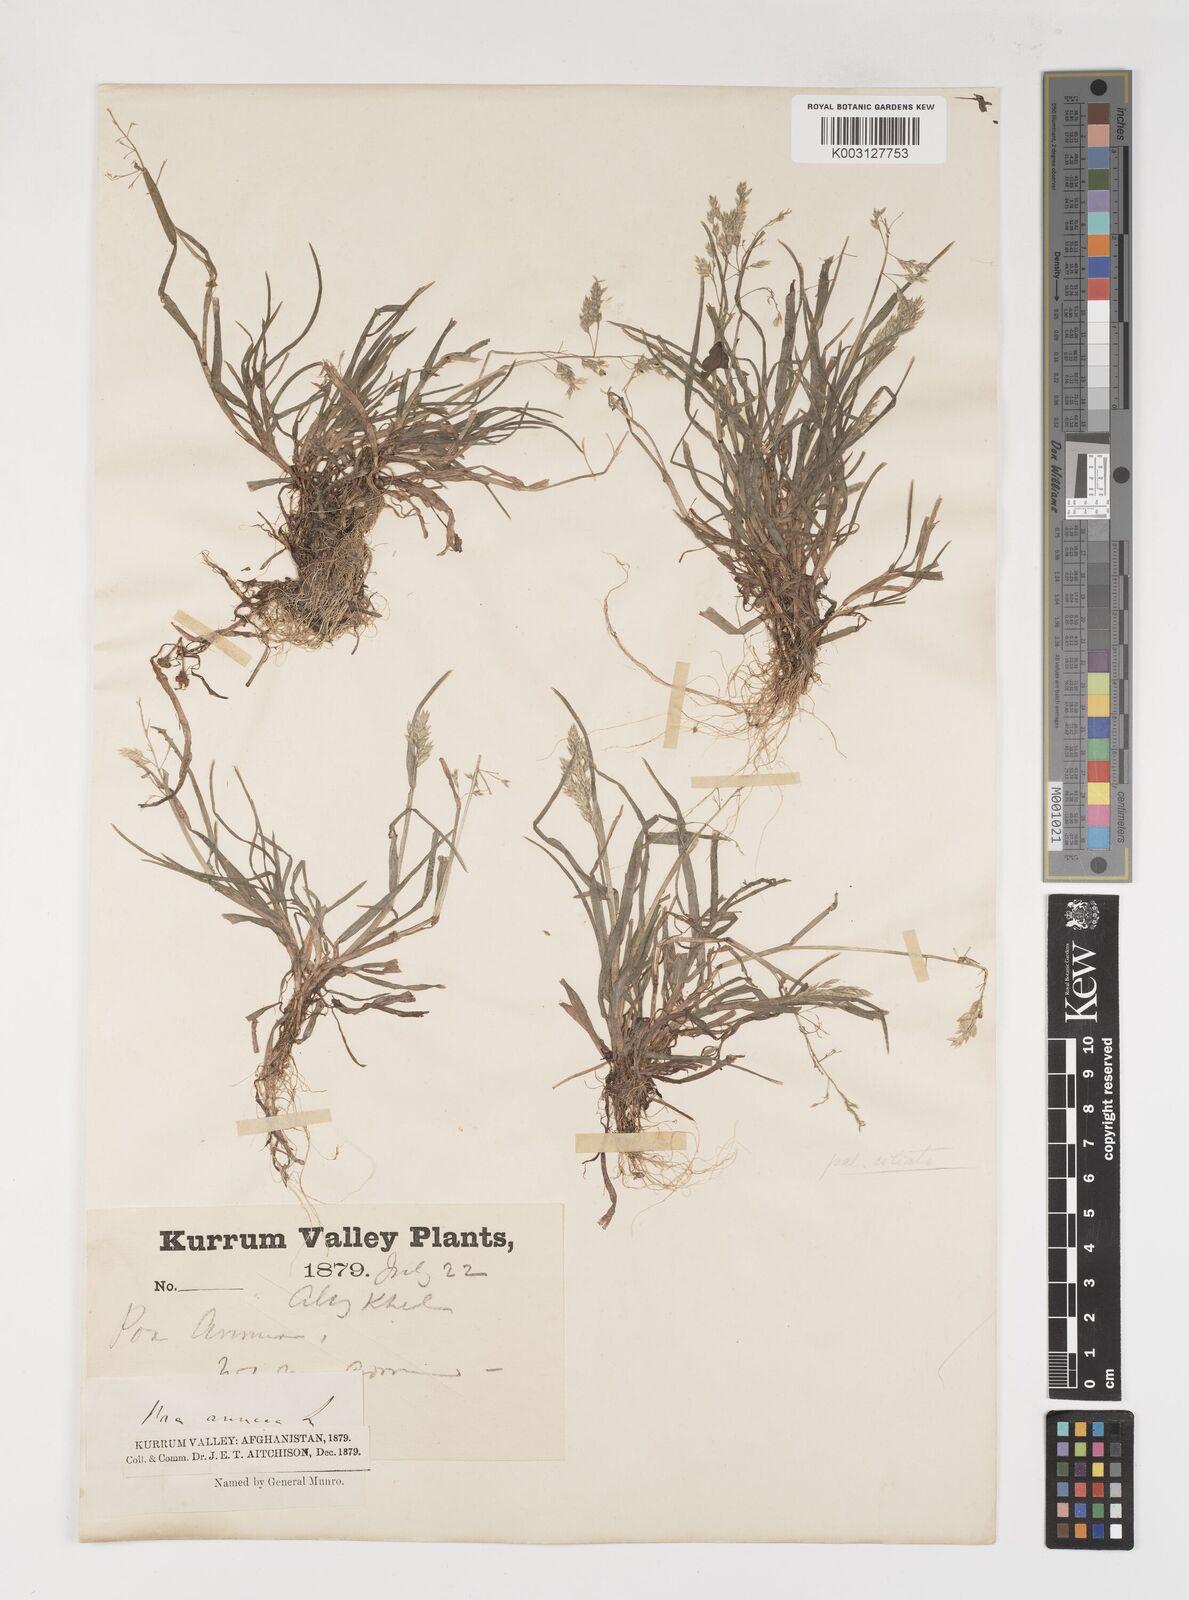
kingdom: Plantae
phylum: Tracheophyta
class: Liliopsida
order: Poales
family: Poaceae
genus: Poa
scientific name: Poa annua
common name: Annual bluegrass
